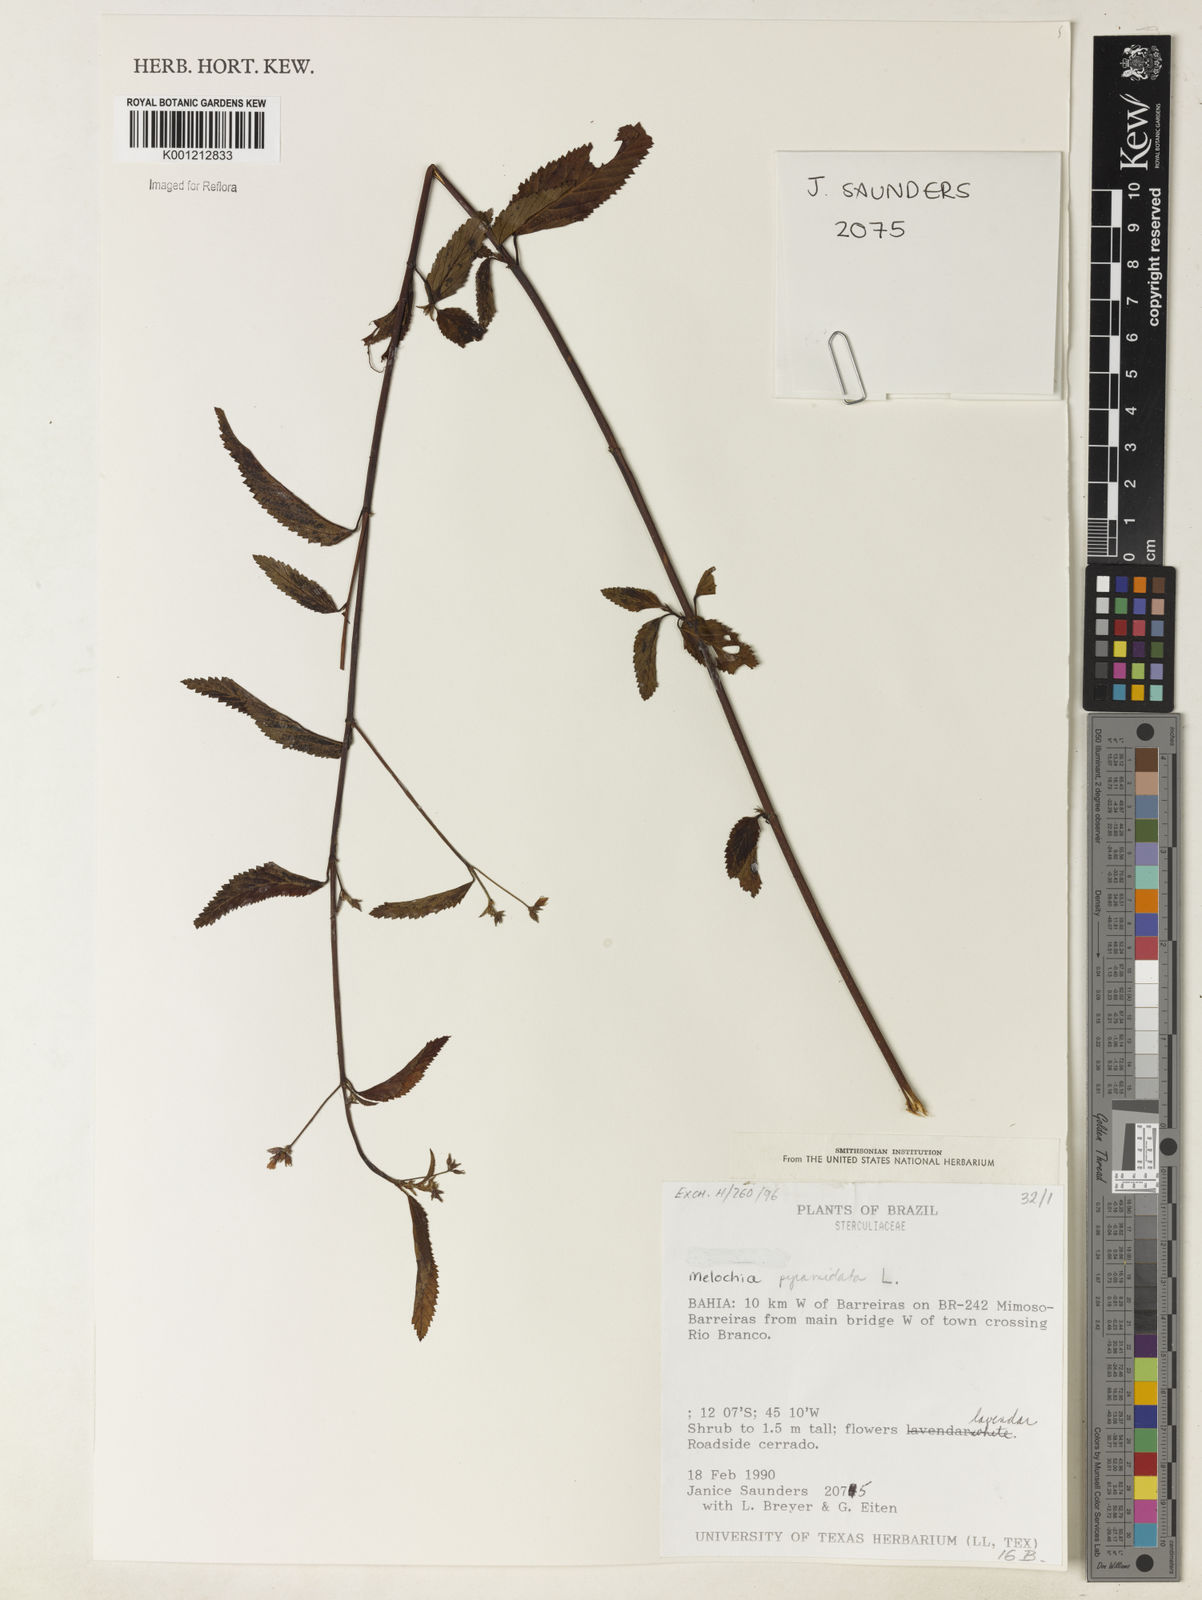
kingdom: Plantae
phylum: Tracheophyta
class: Magnoliopsida
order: Malvales
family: Malvaceae
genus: Melochia
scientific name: Melochia pyramidata
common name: Pyramidflower
